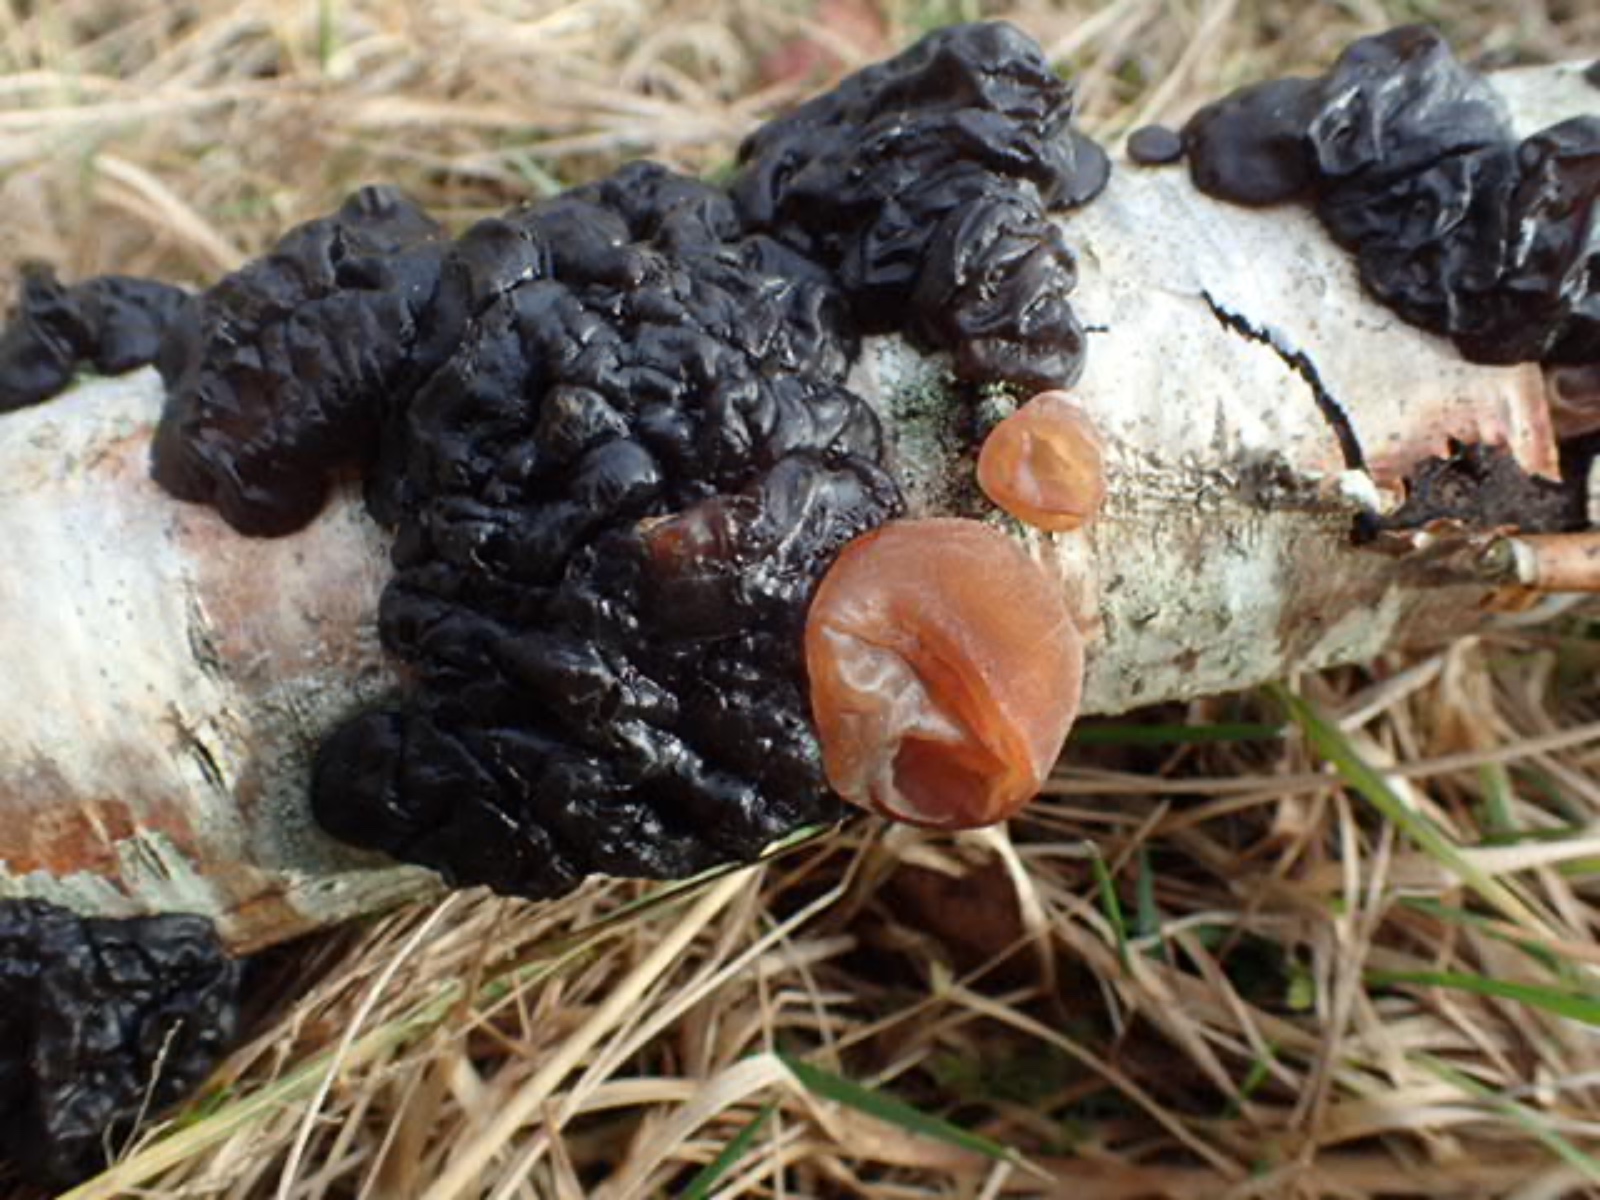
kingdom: Fungi
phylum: Basidiomycota
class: Agaricomycetes
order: Auriculariales
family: Auriculariaceae
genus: Exidia
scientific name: Exidia nigricans
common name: almindelig bævretop
